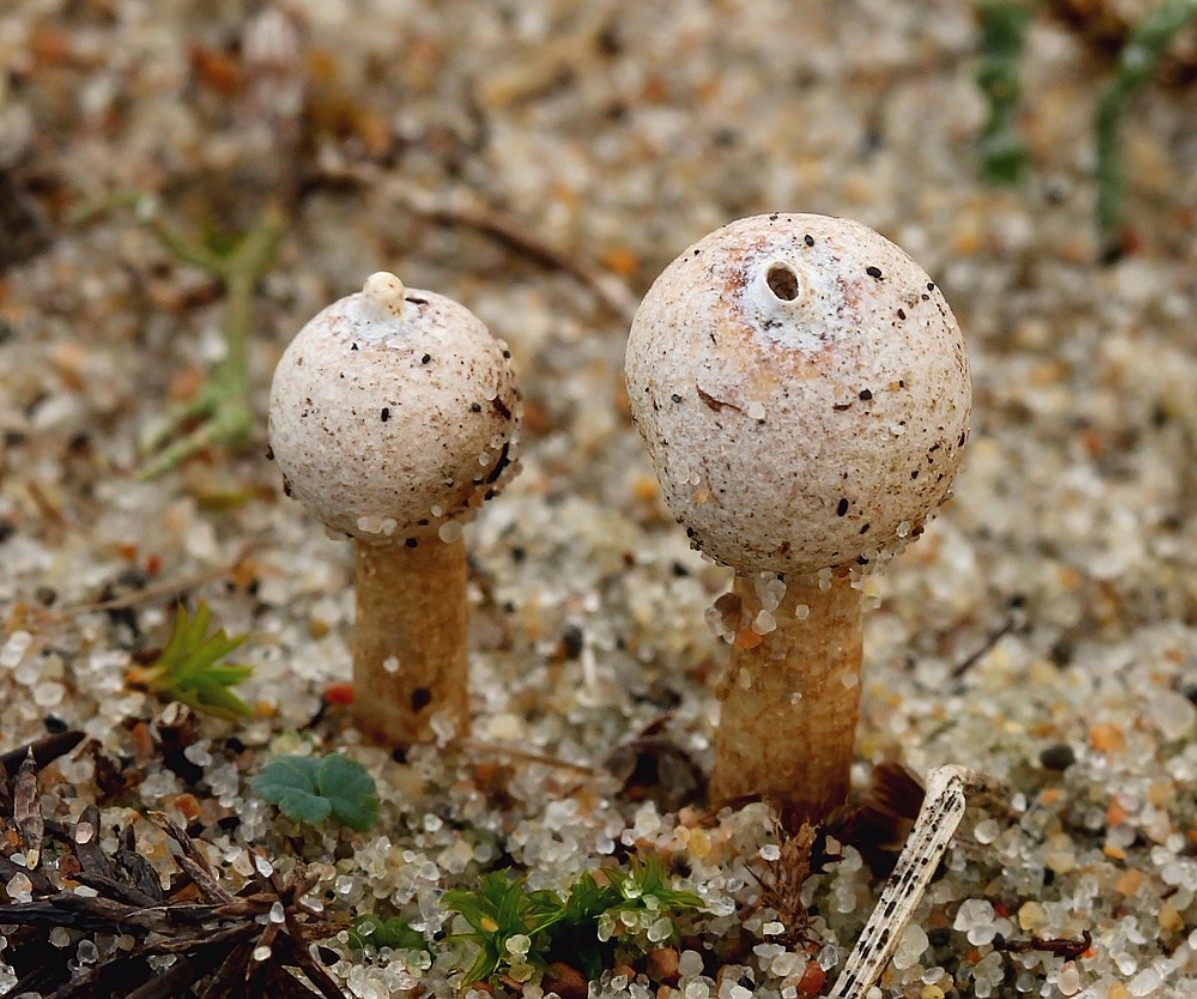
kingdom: Fungi
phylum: Basidiomycota
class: Agaricomycetes
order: Agaricales
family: Agaricaceae
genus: Tulostoma
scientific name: Tulostoma brumale
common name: vinter-stilkbovist
